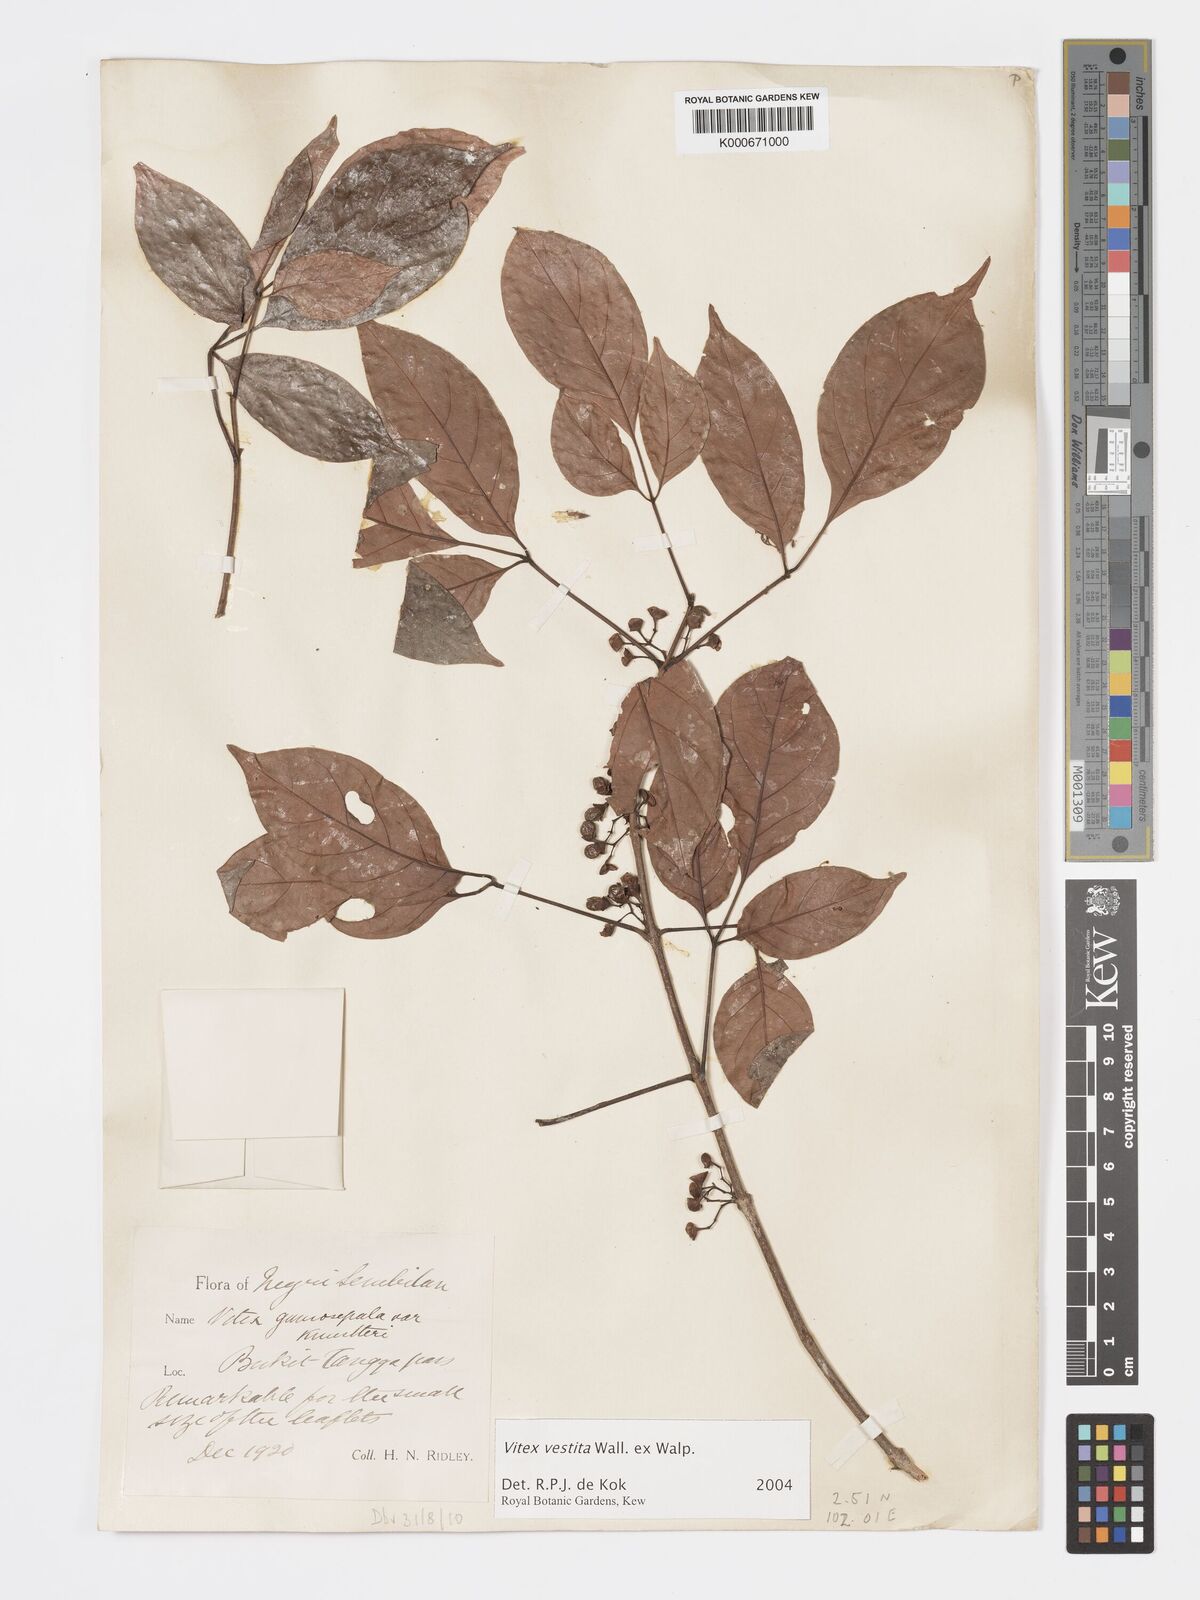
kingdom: Plantae
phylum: Tracheophyta
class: Magnoliopsida
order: Lamiales
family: Lamiaceae
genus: Vitex
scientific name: Vitex vestita
